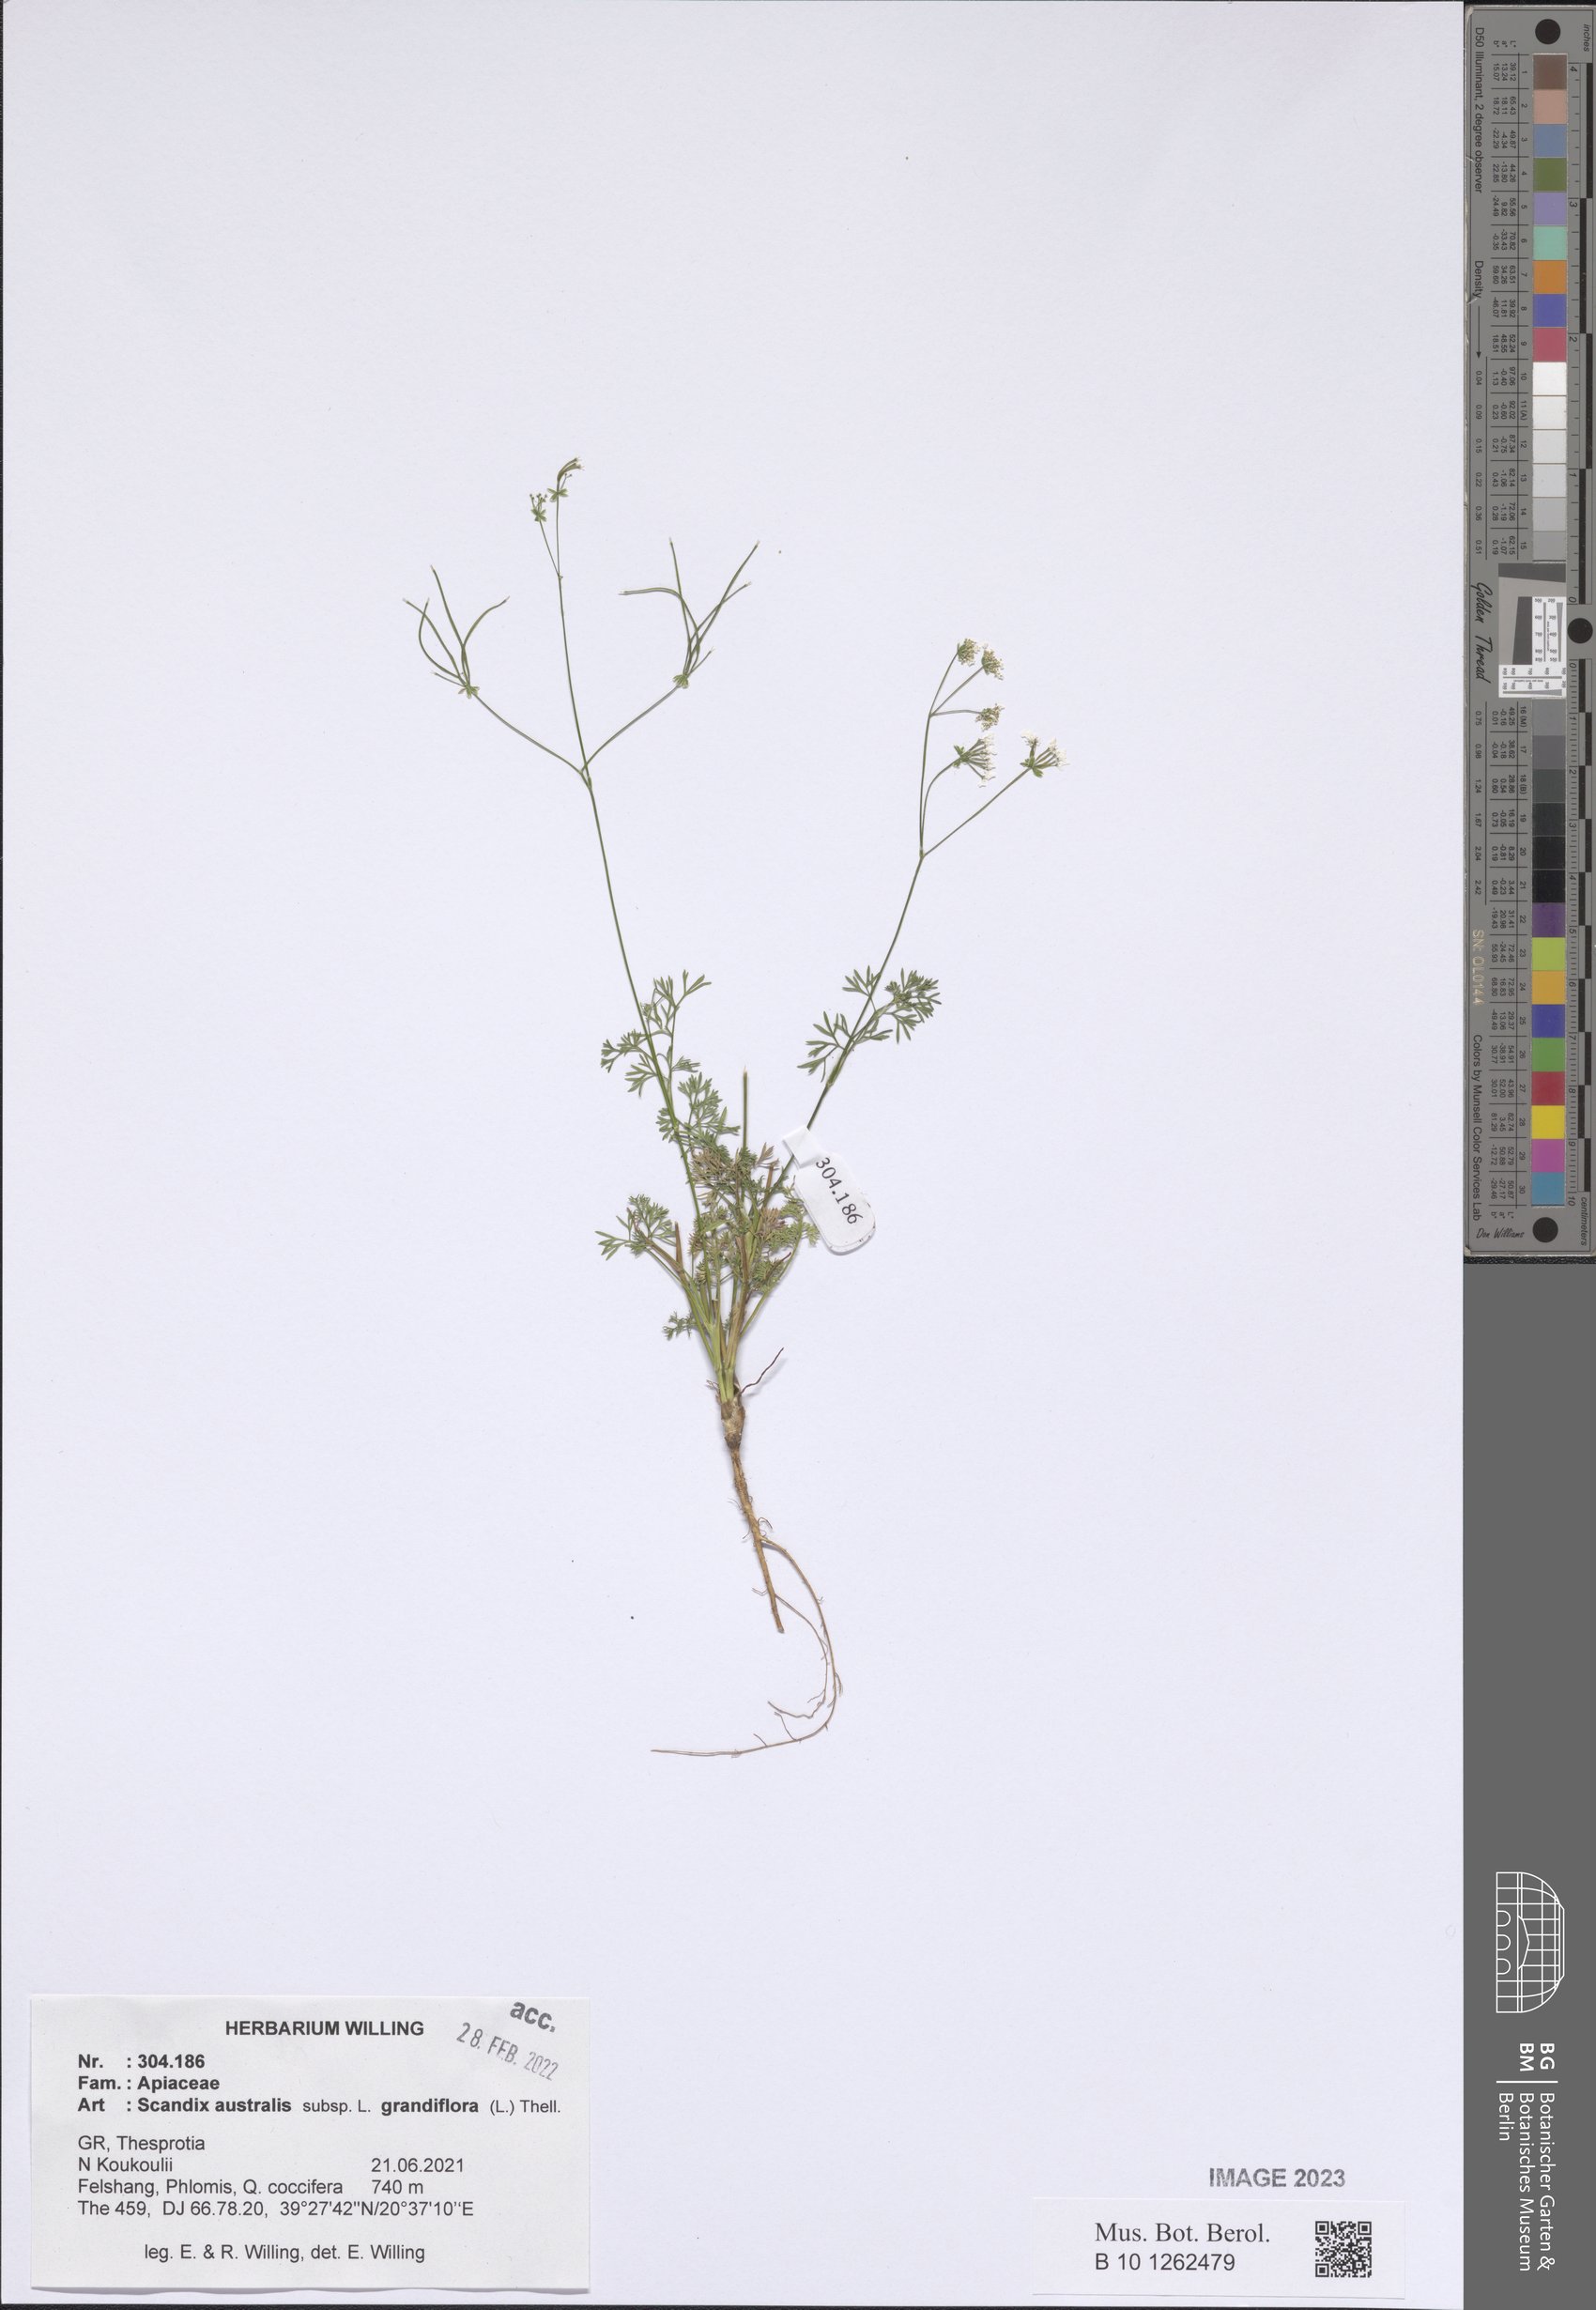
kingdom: Plantae
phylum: Tracheophyta
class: Magnoliopsida
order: Apiales
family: Apiaceae
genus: Scandix
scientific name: Scandix australis
